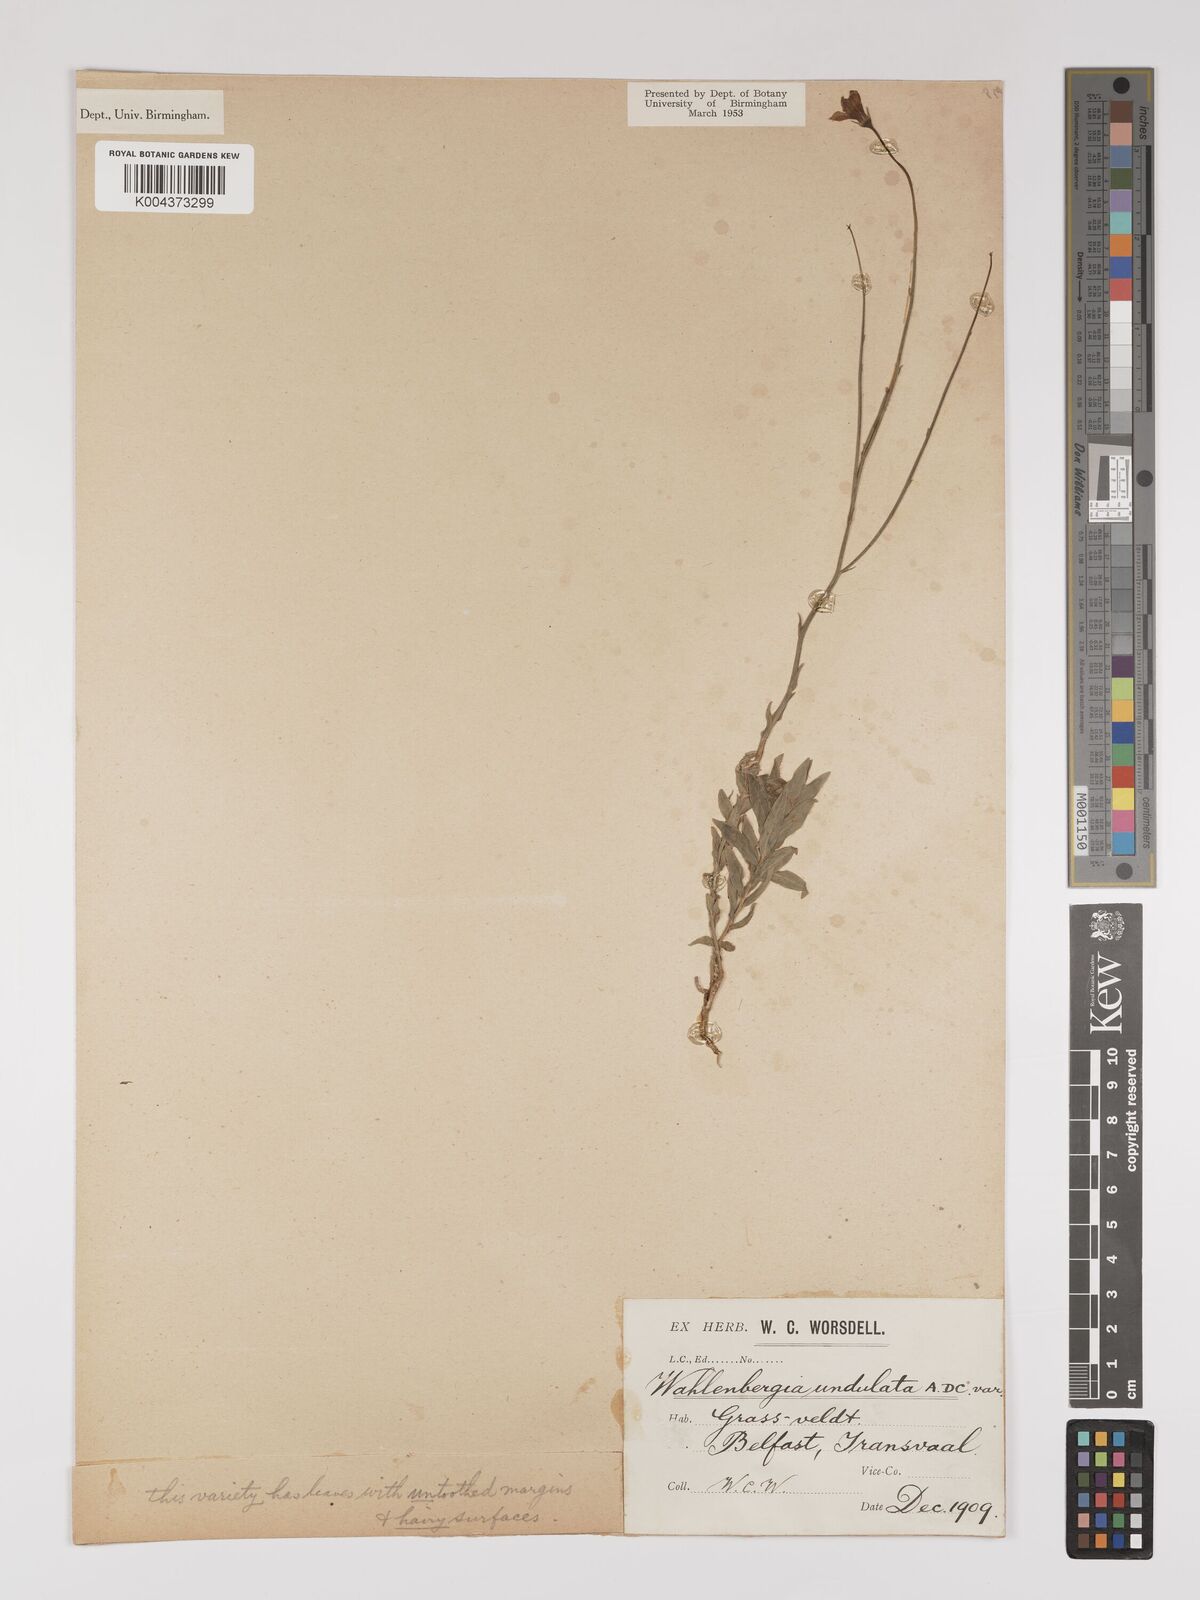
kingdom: Plantae
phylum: Tracheophyta
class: Magnoliopsida
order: Asterales
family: Campanulaceae
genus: Wahlenbergia
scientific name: Wahlenbergia undulata
